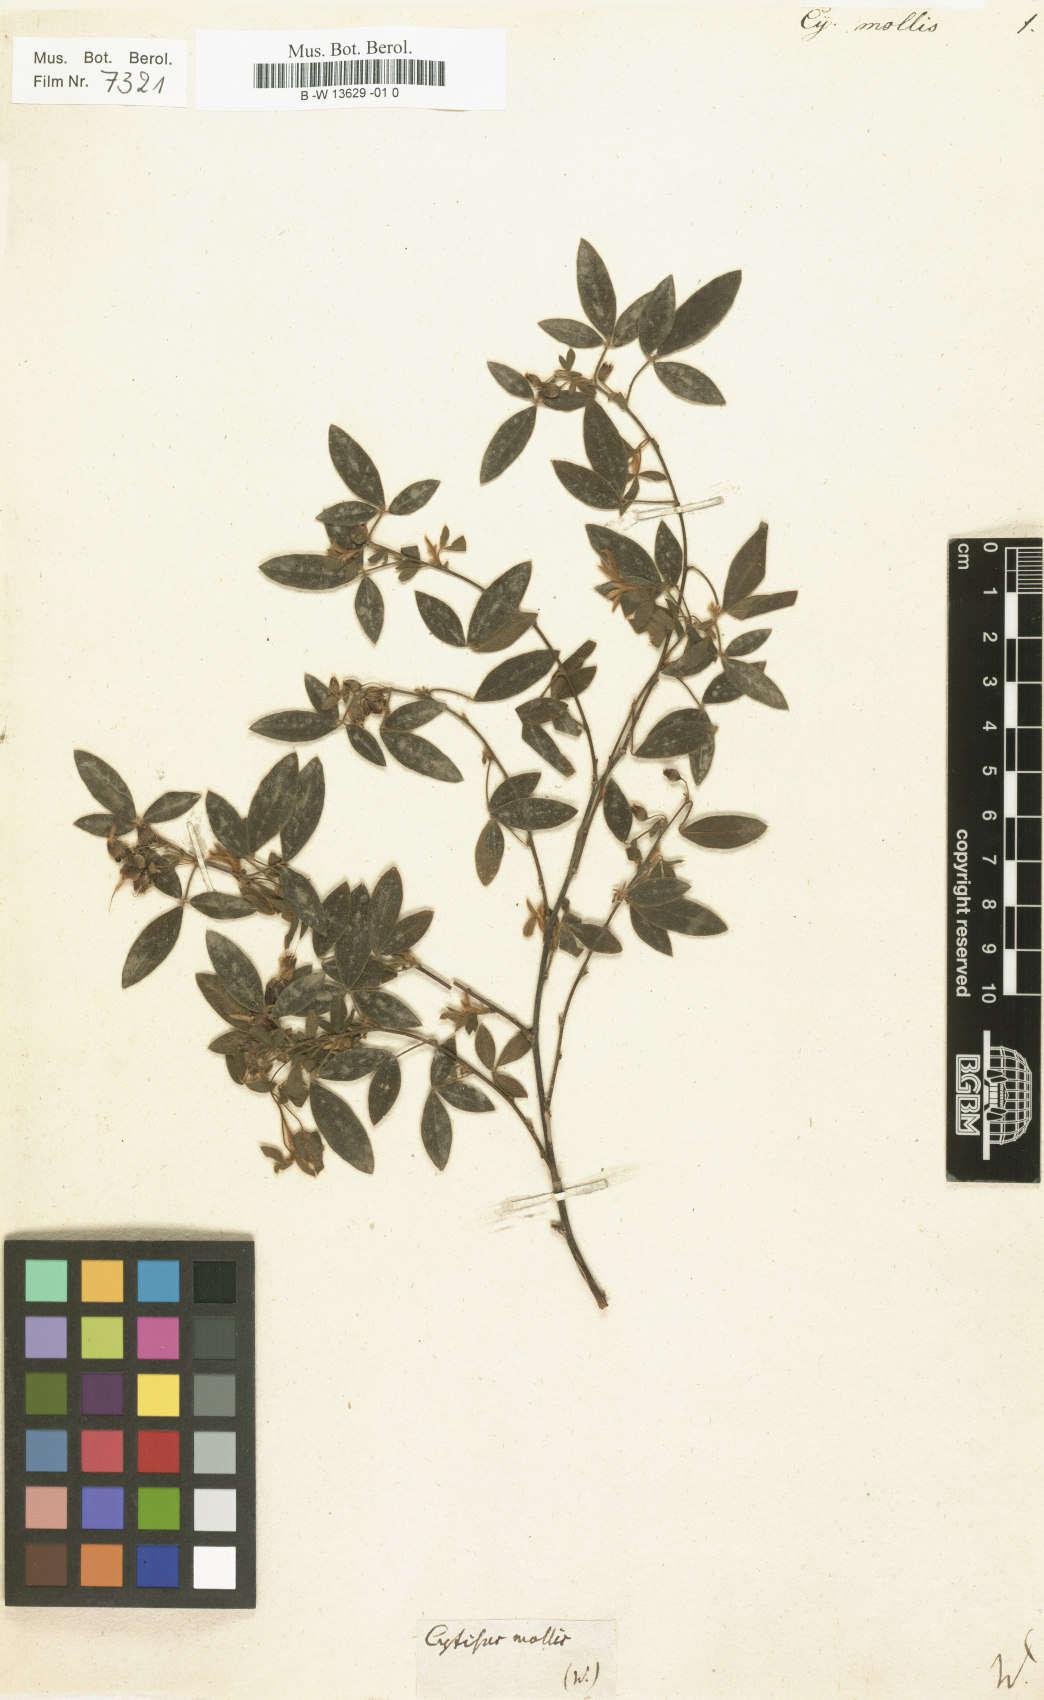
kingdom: Plantae
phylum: Tracheophyta
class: Magnoliopsida
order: Fabales
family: Fabaceae
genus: Cytisus
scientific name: Cytisus villosus
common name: Hairybroom
